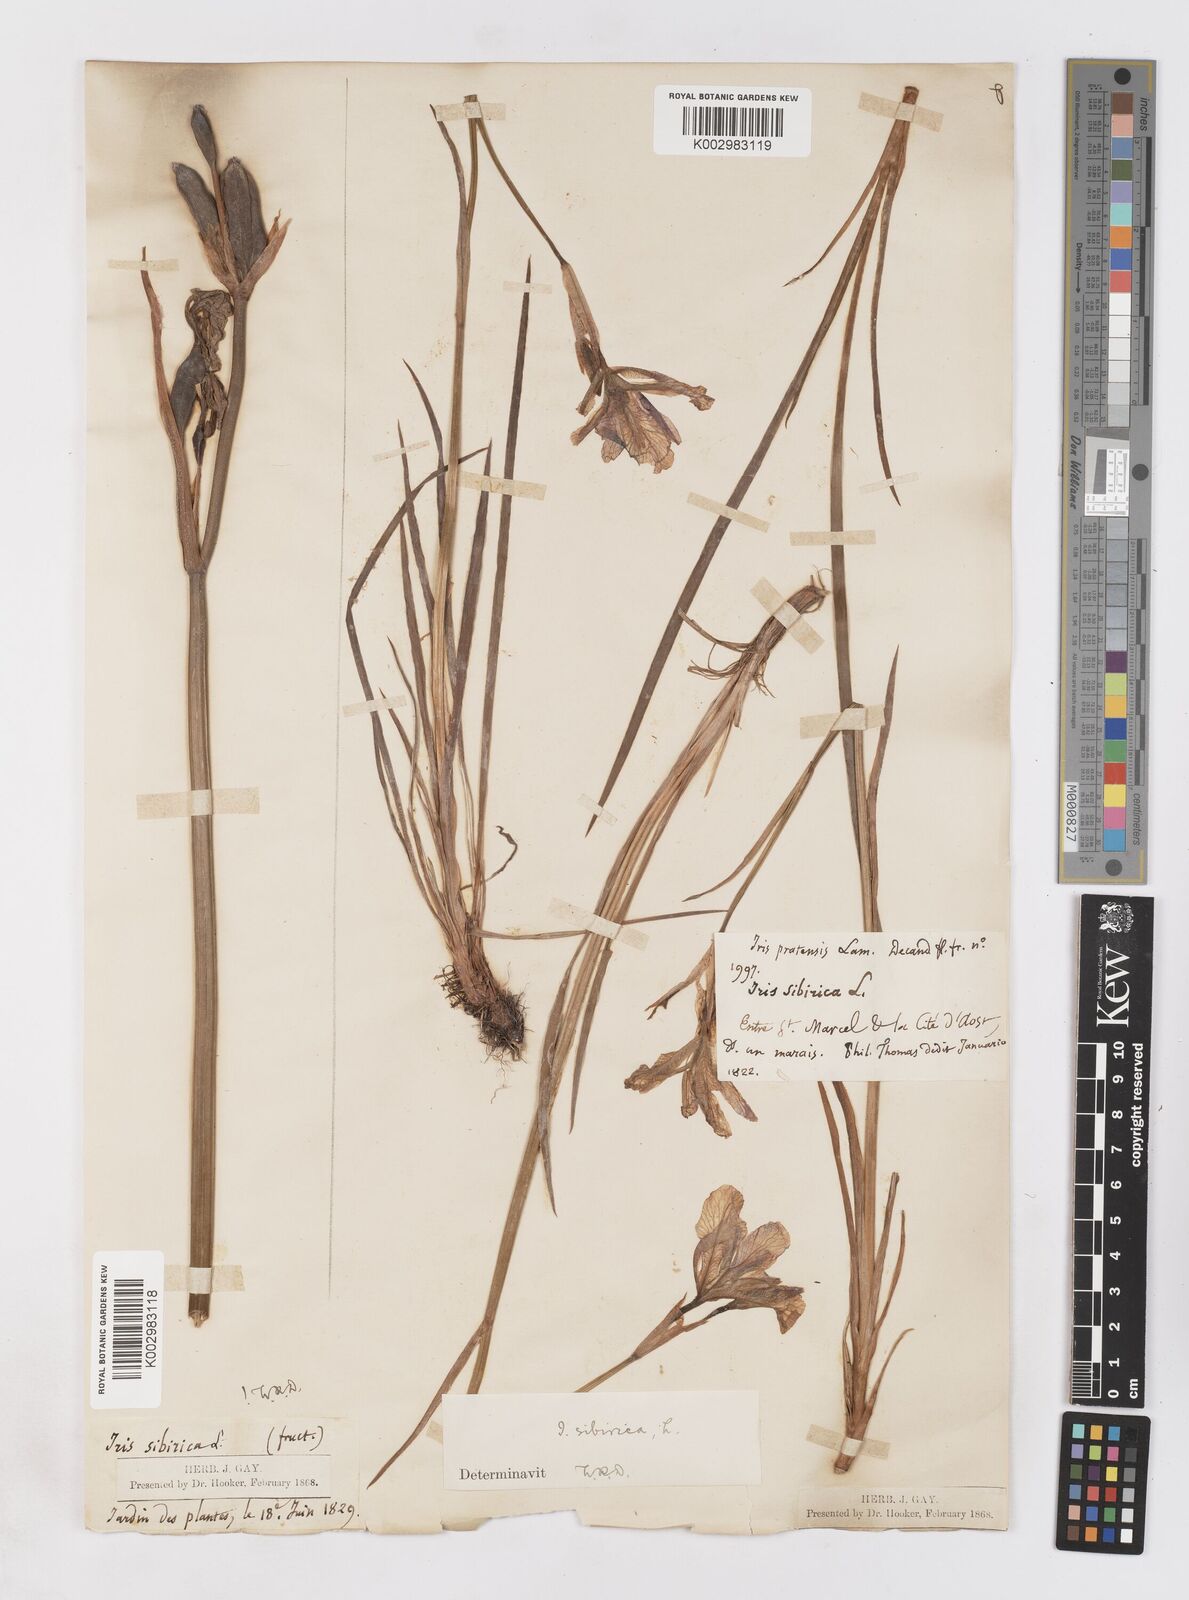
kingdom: Plantae
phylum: Tracheophyta
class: Liliopsida
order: Asparagales
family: Iridaceae
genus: Iris
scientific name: Iris sibirica
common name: Siberian iris
